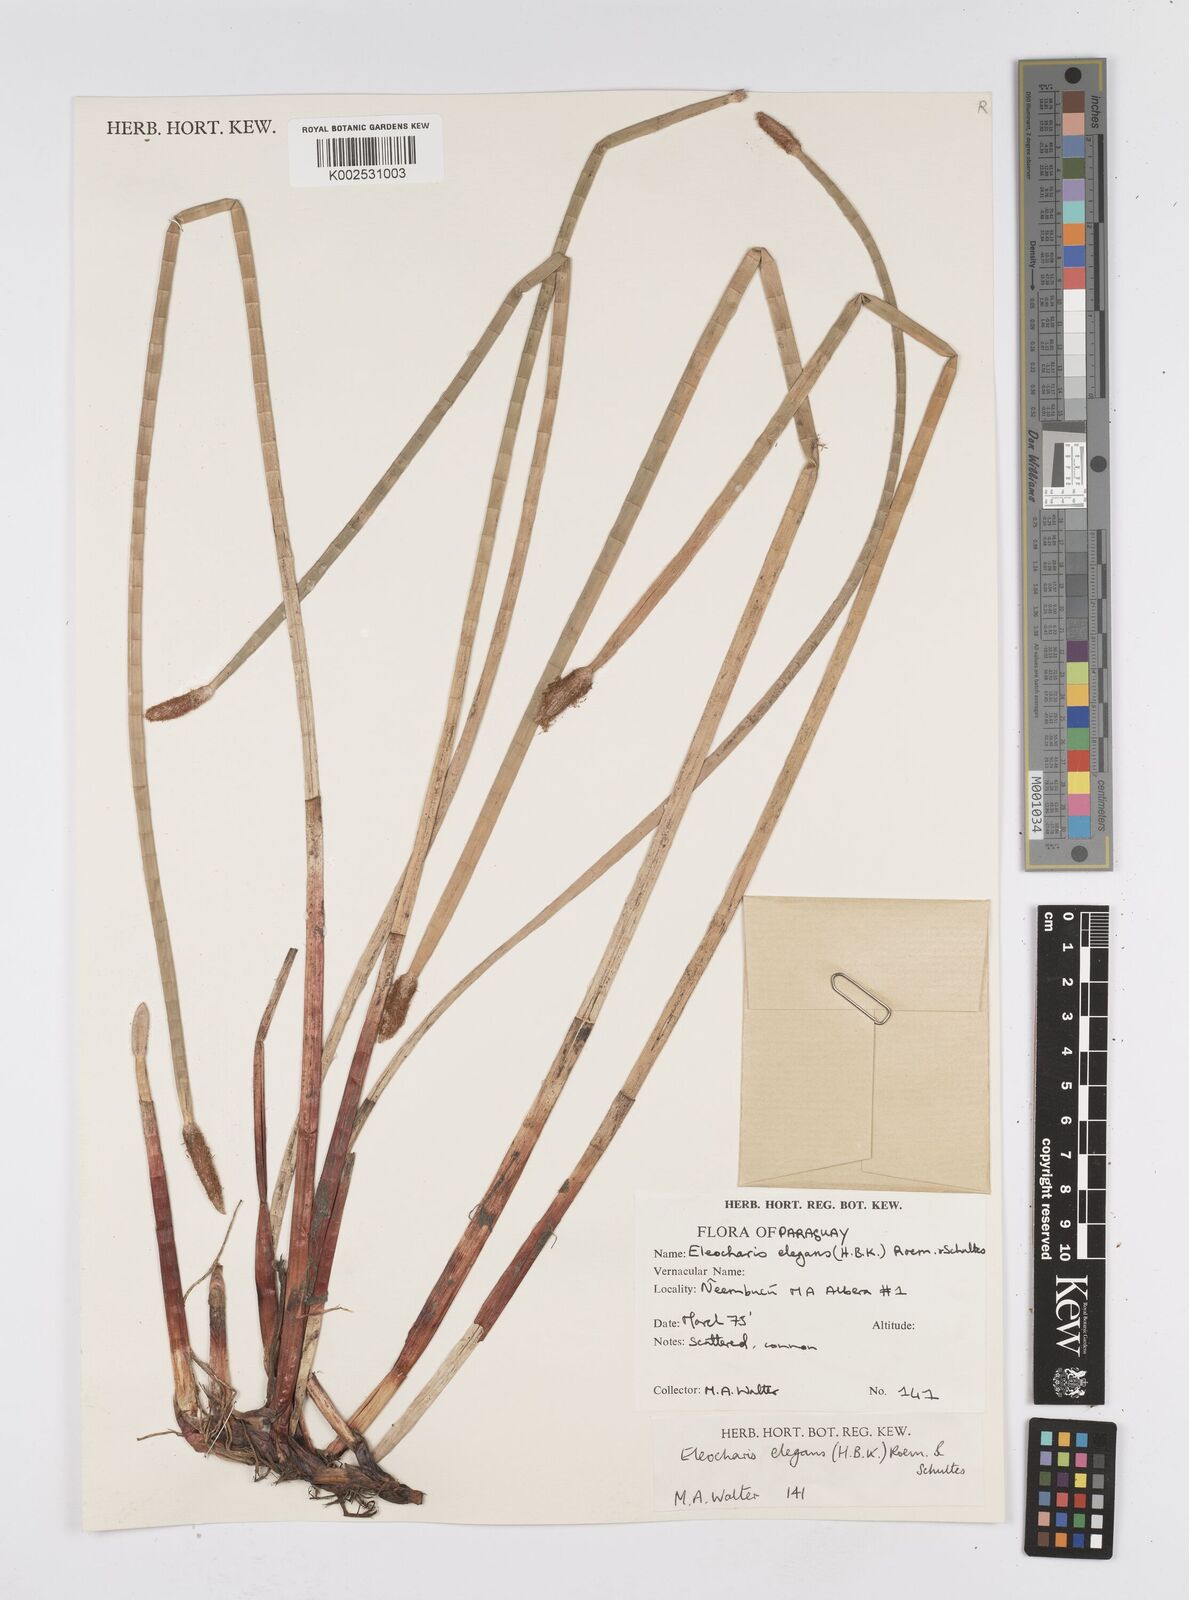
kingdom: Plantae
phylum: Tracheophyta
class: Liliopsida
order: Poales
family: Cyperaceae
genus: Eleocharis
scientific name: Eleocharis elegans
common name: Elegant spike-rush
